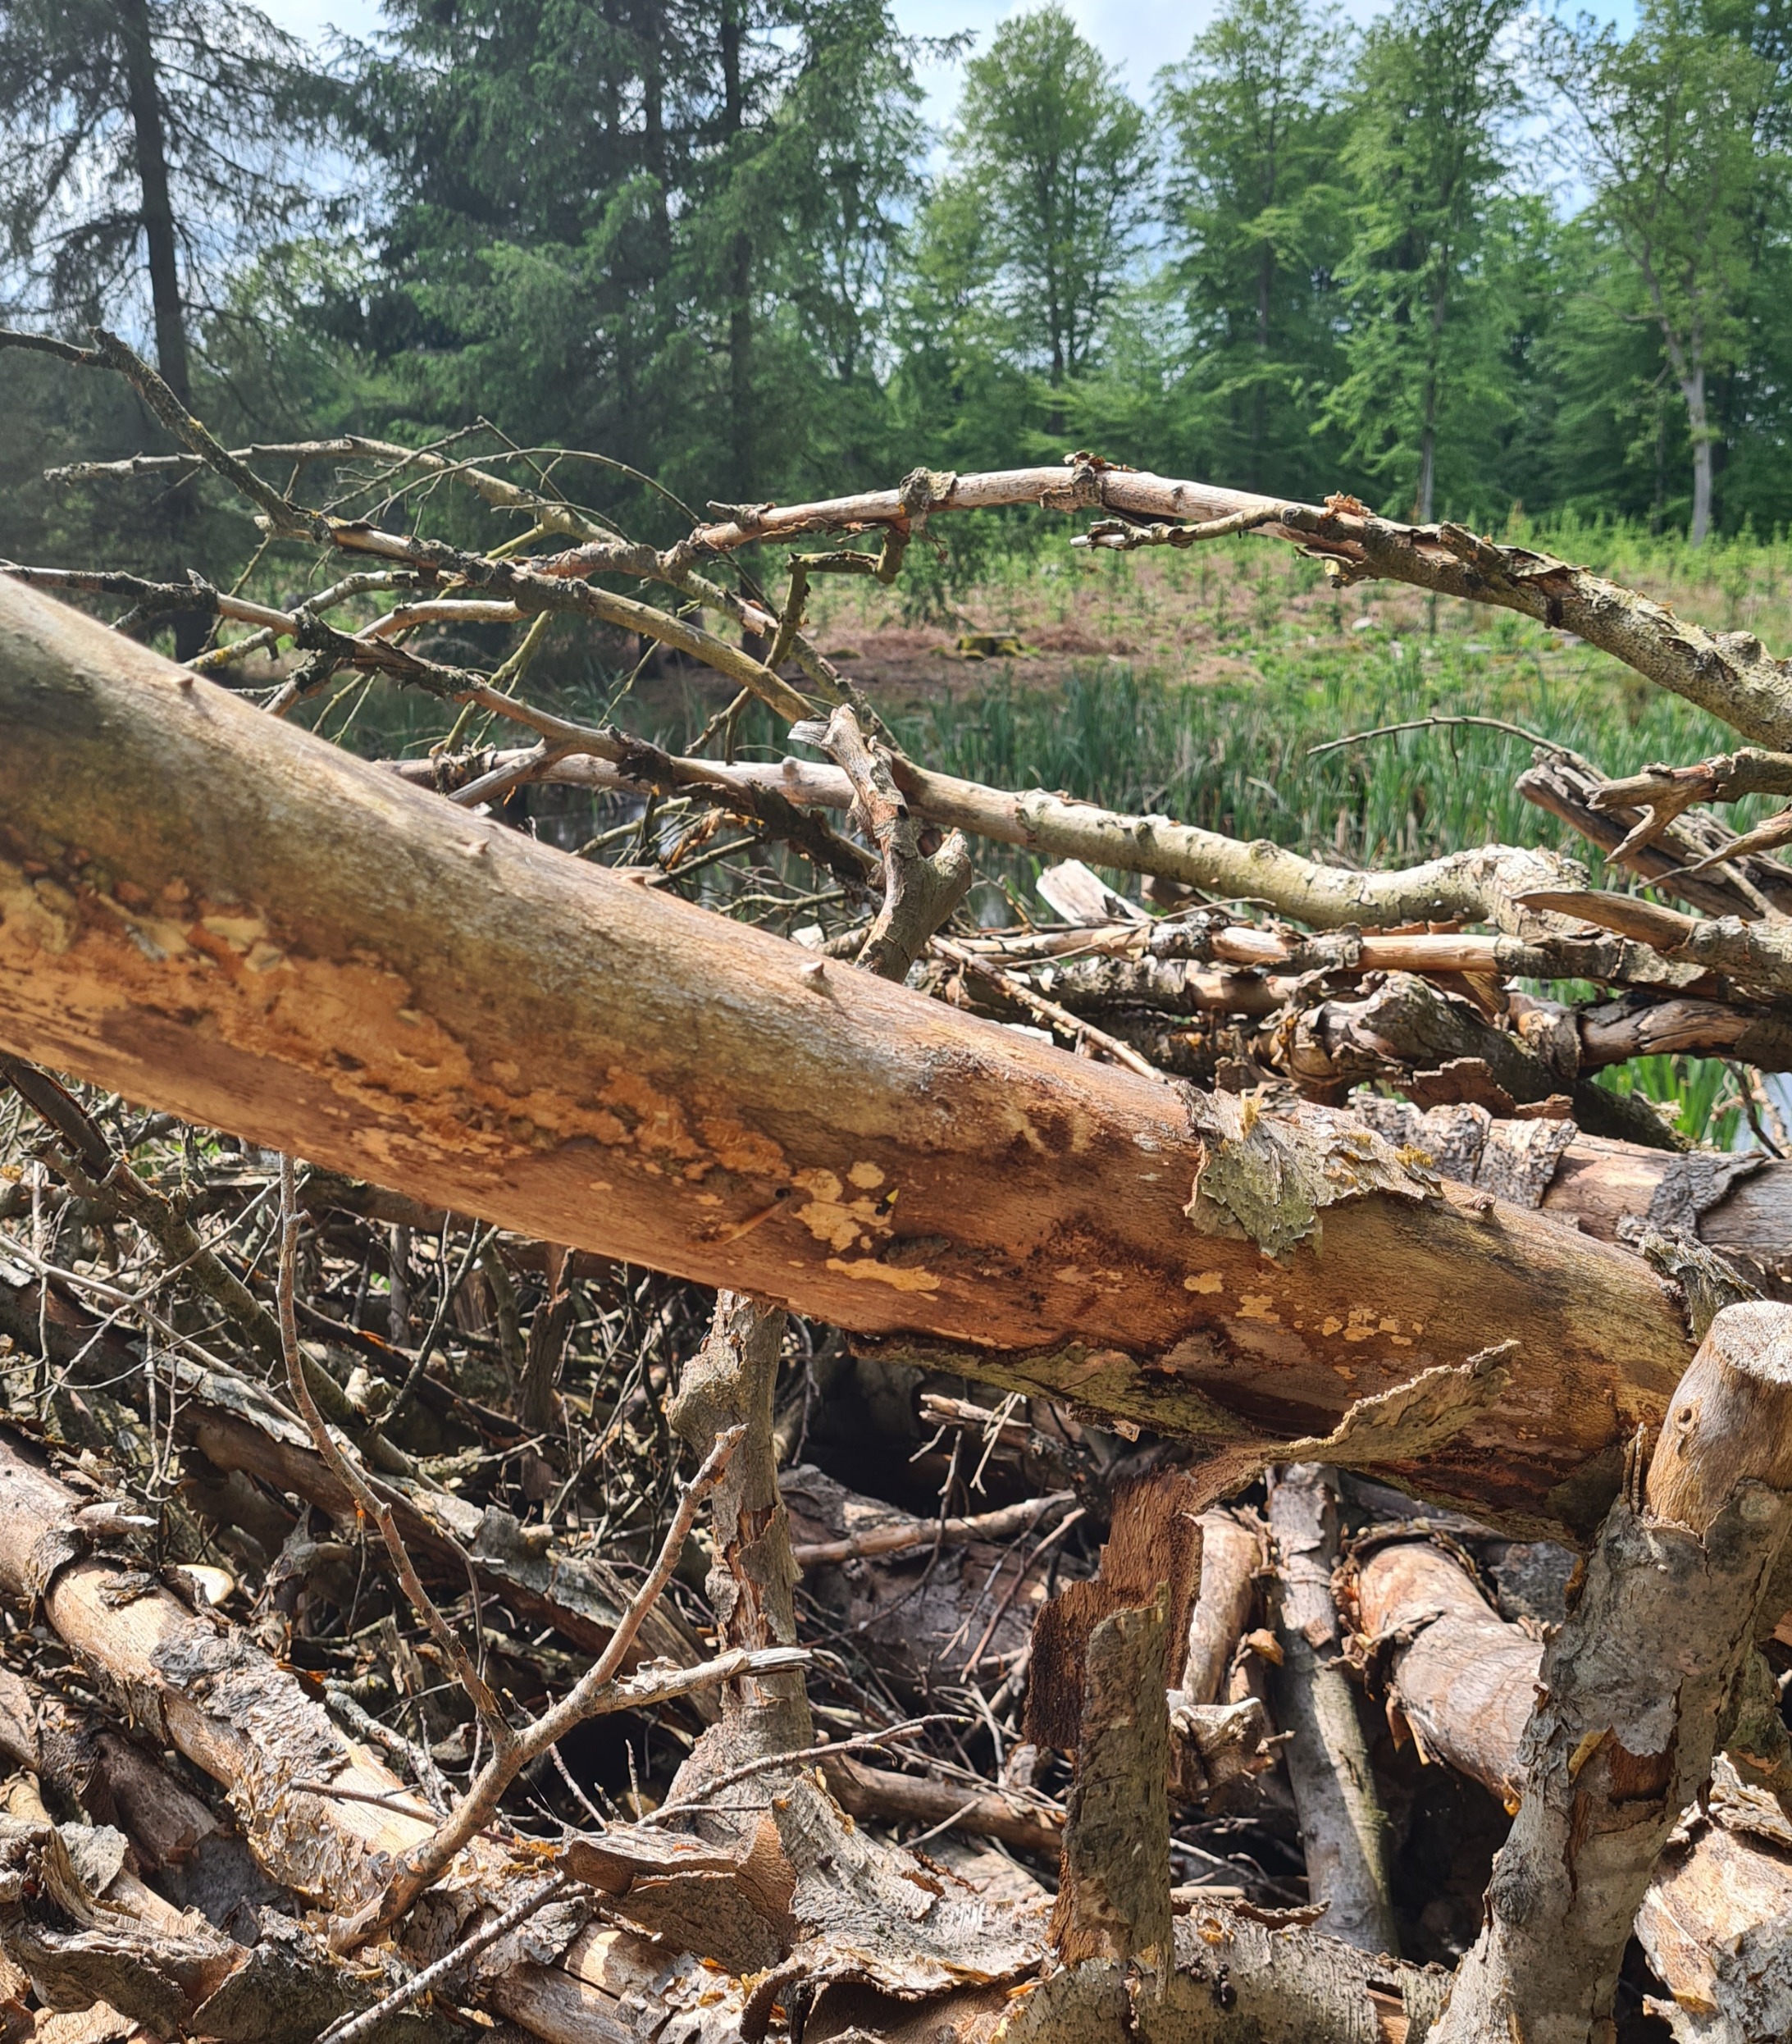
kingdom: Animalia
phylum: Arthropoda
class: Insecta
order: Lepidoptera
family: Oecophoridae
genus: Oecophora
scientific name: Oecophora bractella
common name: Tofarvet prydvinge
